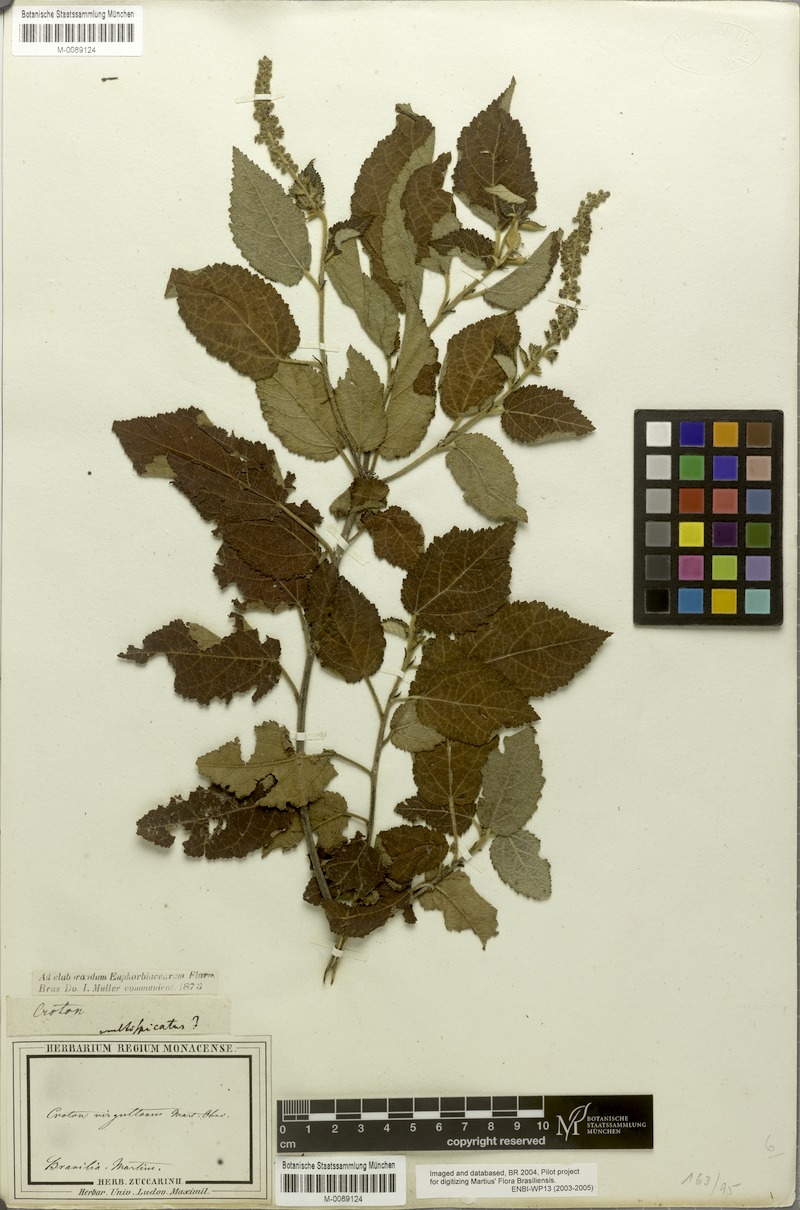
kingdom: Plantae
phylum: Tracheophyta
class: Magnoliopsida
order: Malpighiales
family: Euphorbiaceae
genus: Croton
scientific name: Croton virgultosus
